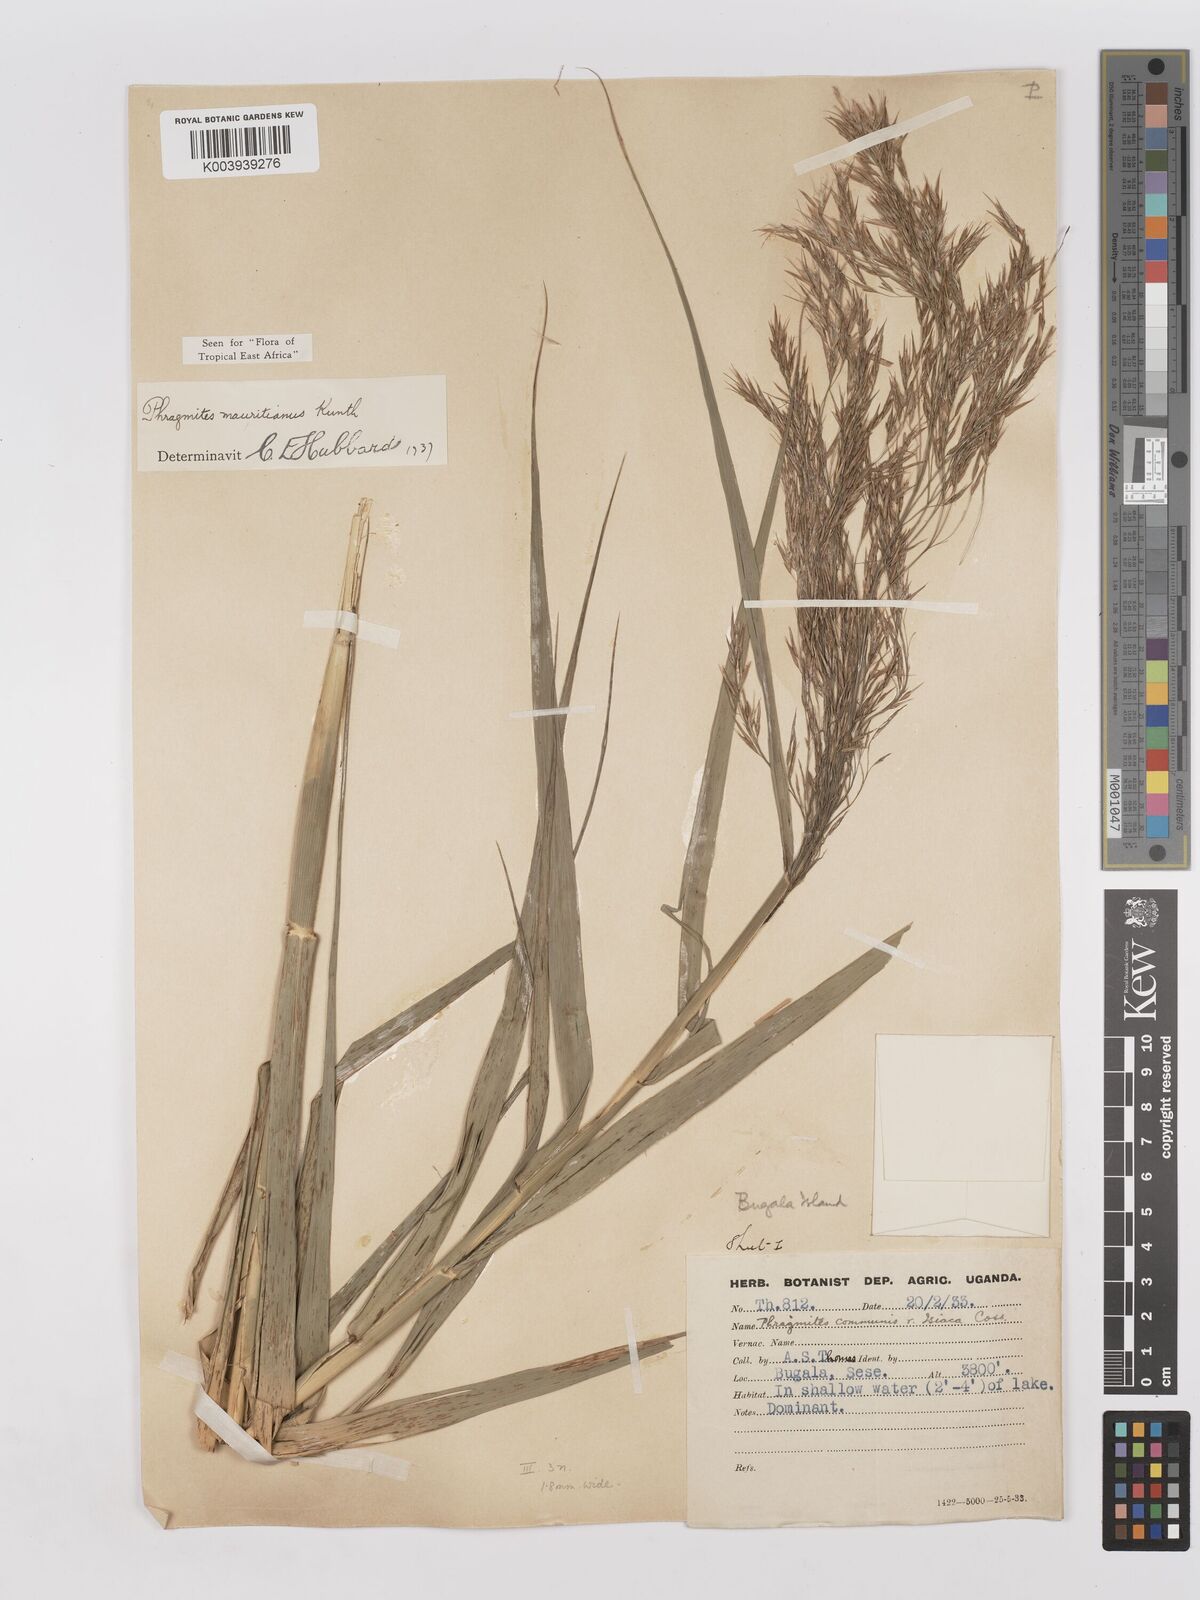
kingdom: Plantae
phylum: Tracheophyta
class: Liliopsida
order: Poales
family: Poaceae
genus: Phragmites
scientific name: Phragmites mauritianus
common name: Reed grass
